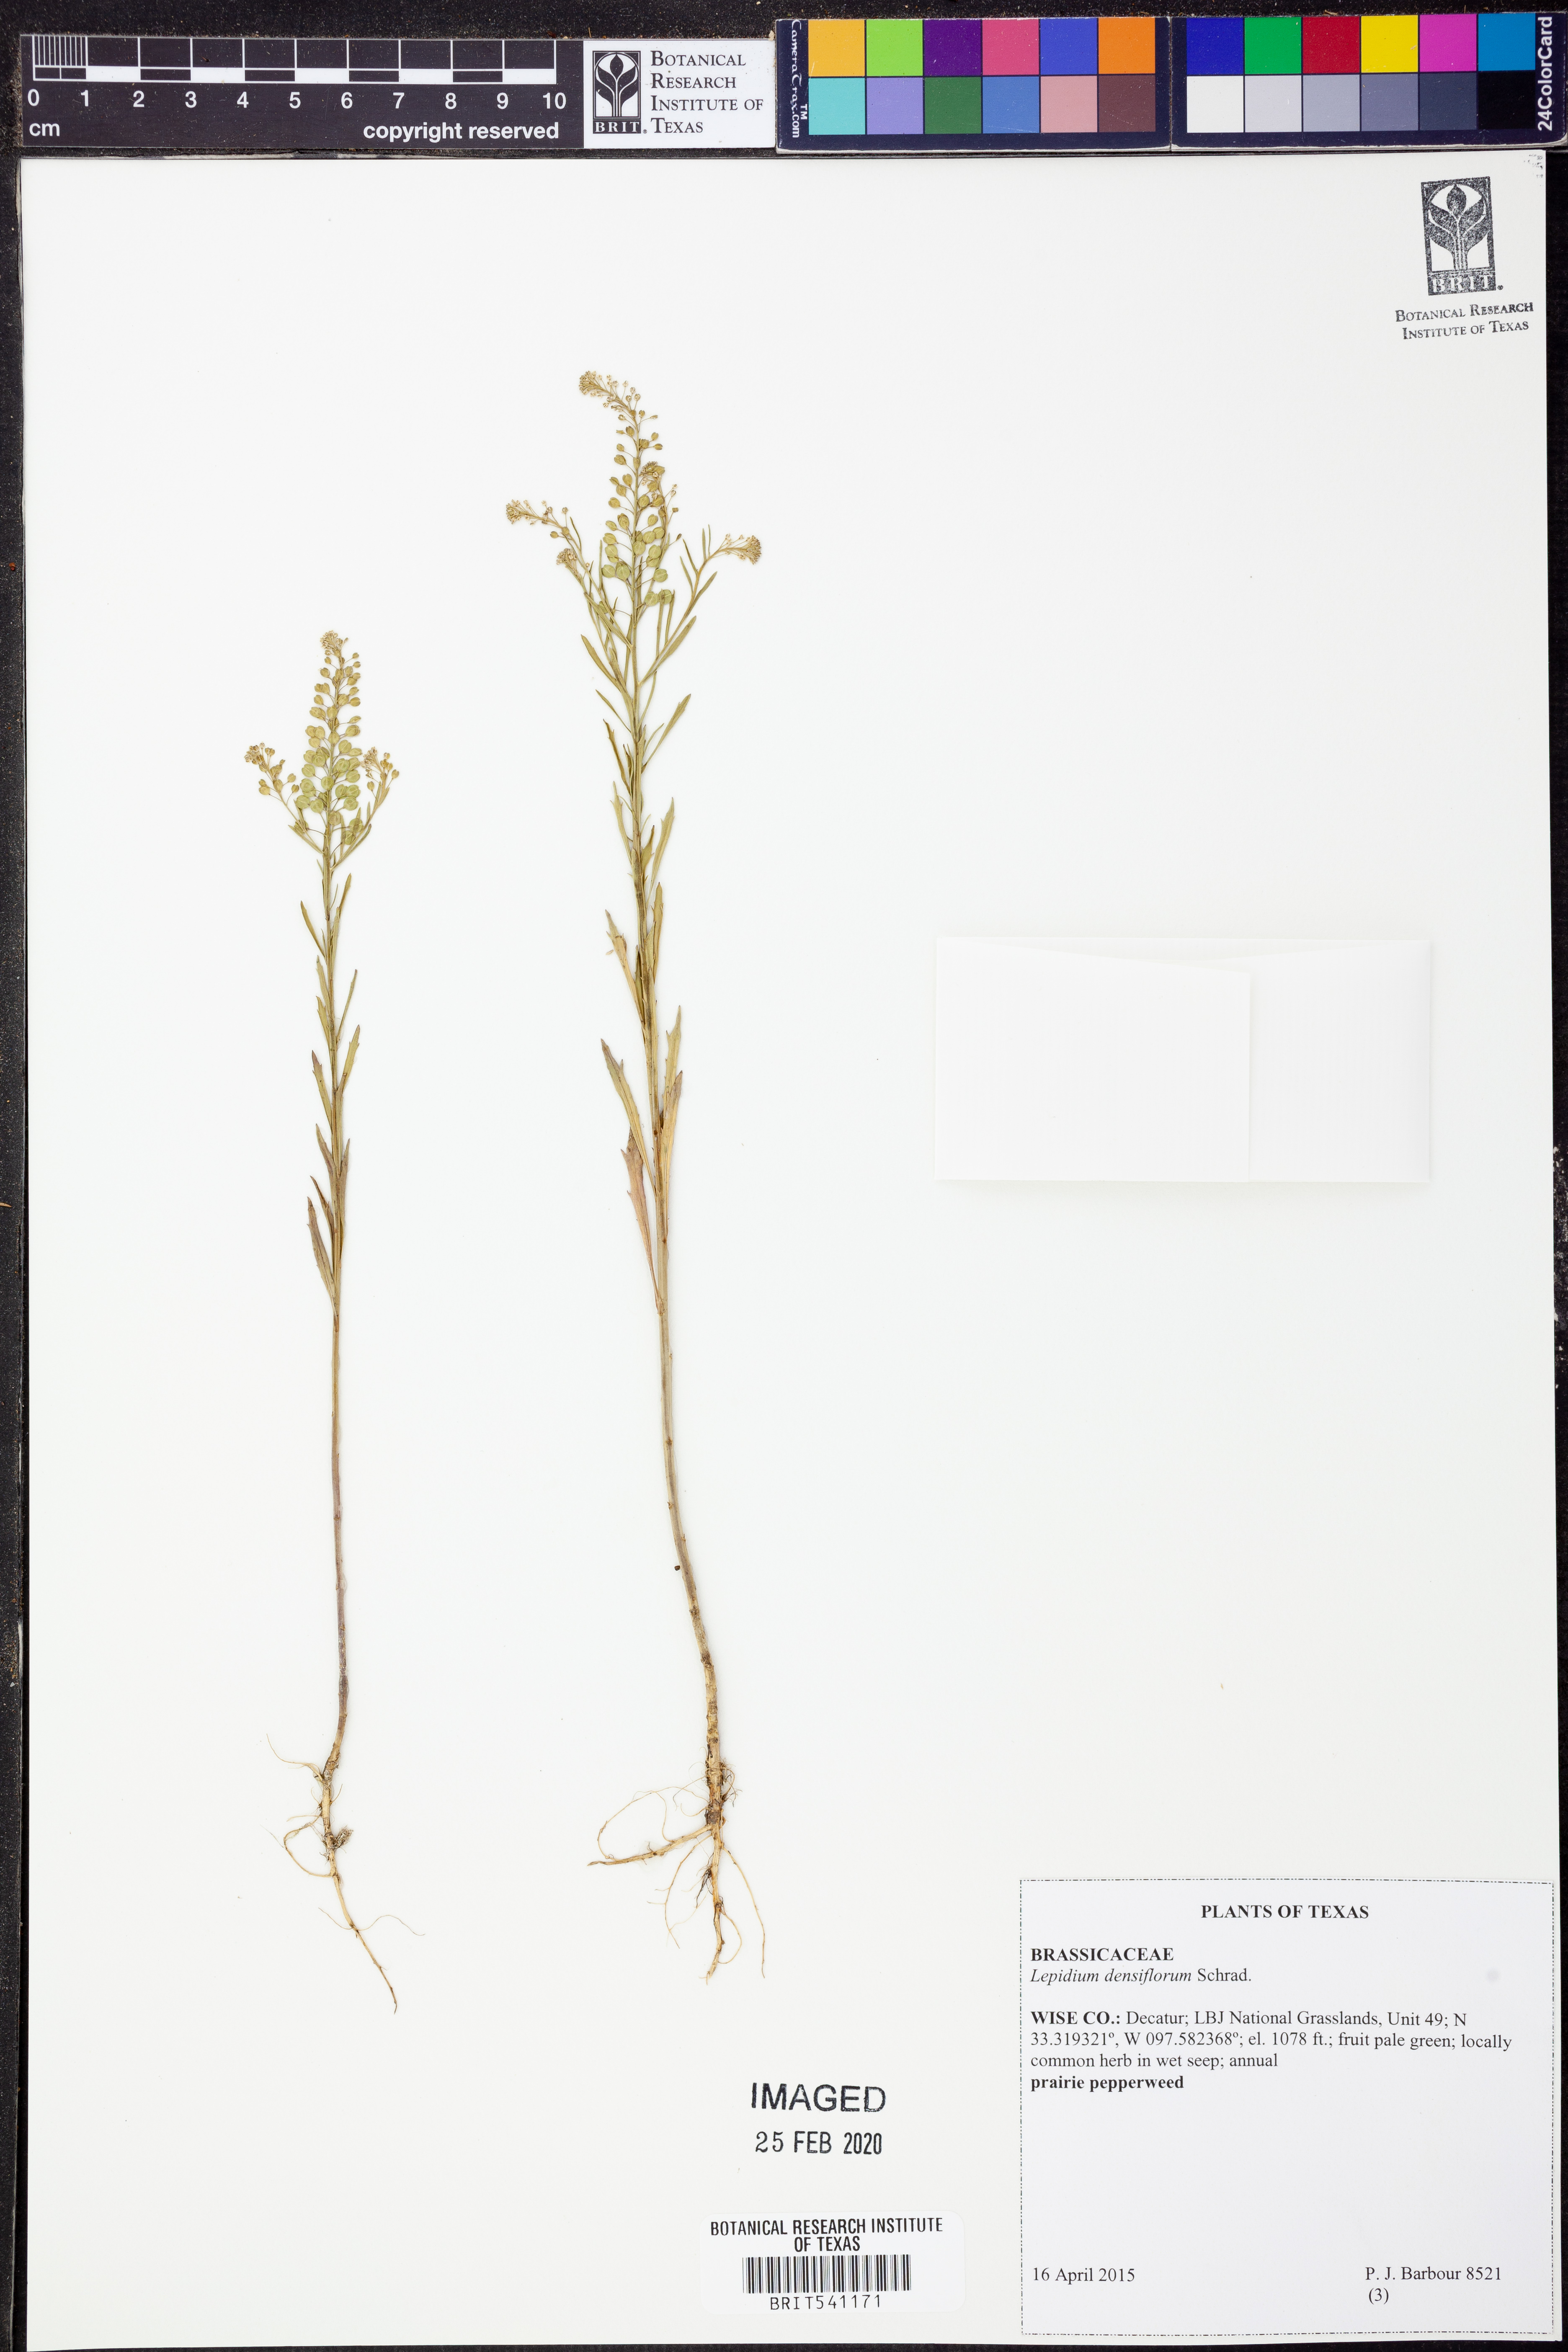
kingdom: Plantae
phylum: Tracheophyta
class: Magnoliopsida
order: Brassicales
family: Brassicaceae
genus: Lepidium
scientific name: Lepidium densiflorum
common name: Miner's pepperwort
